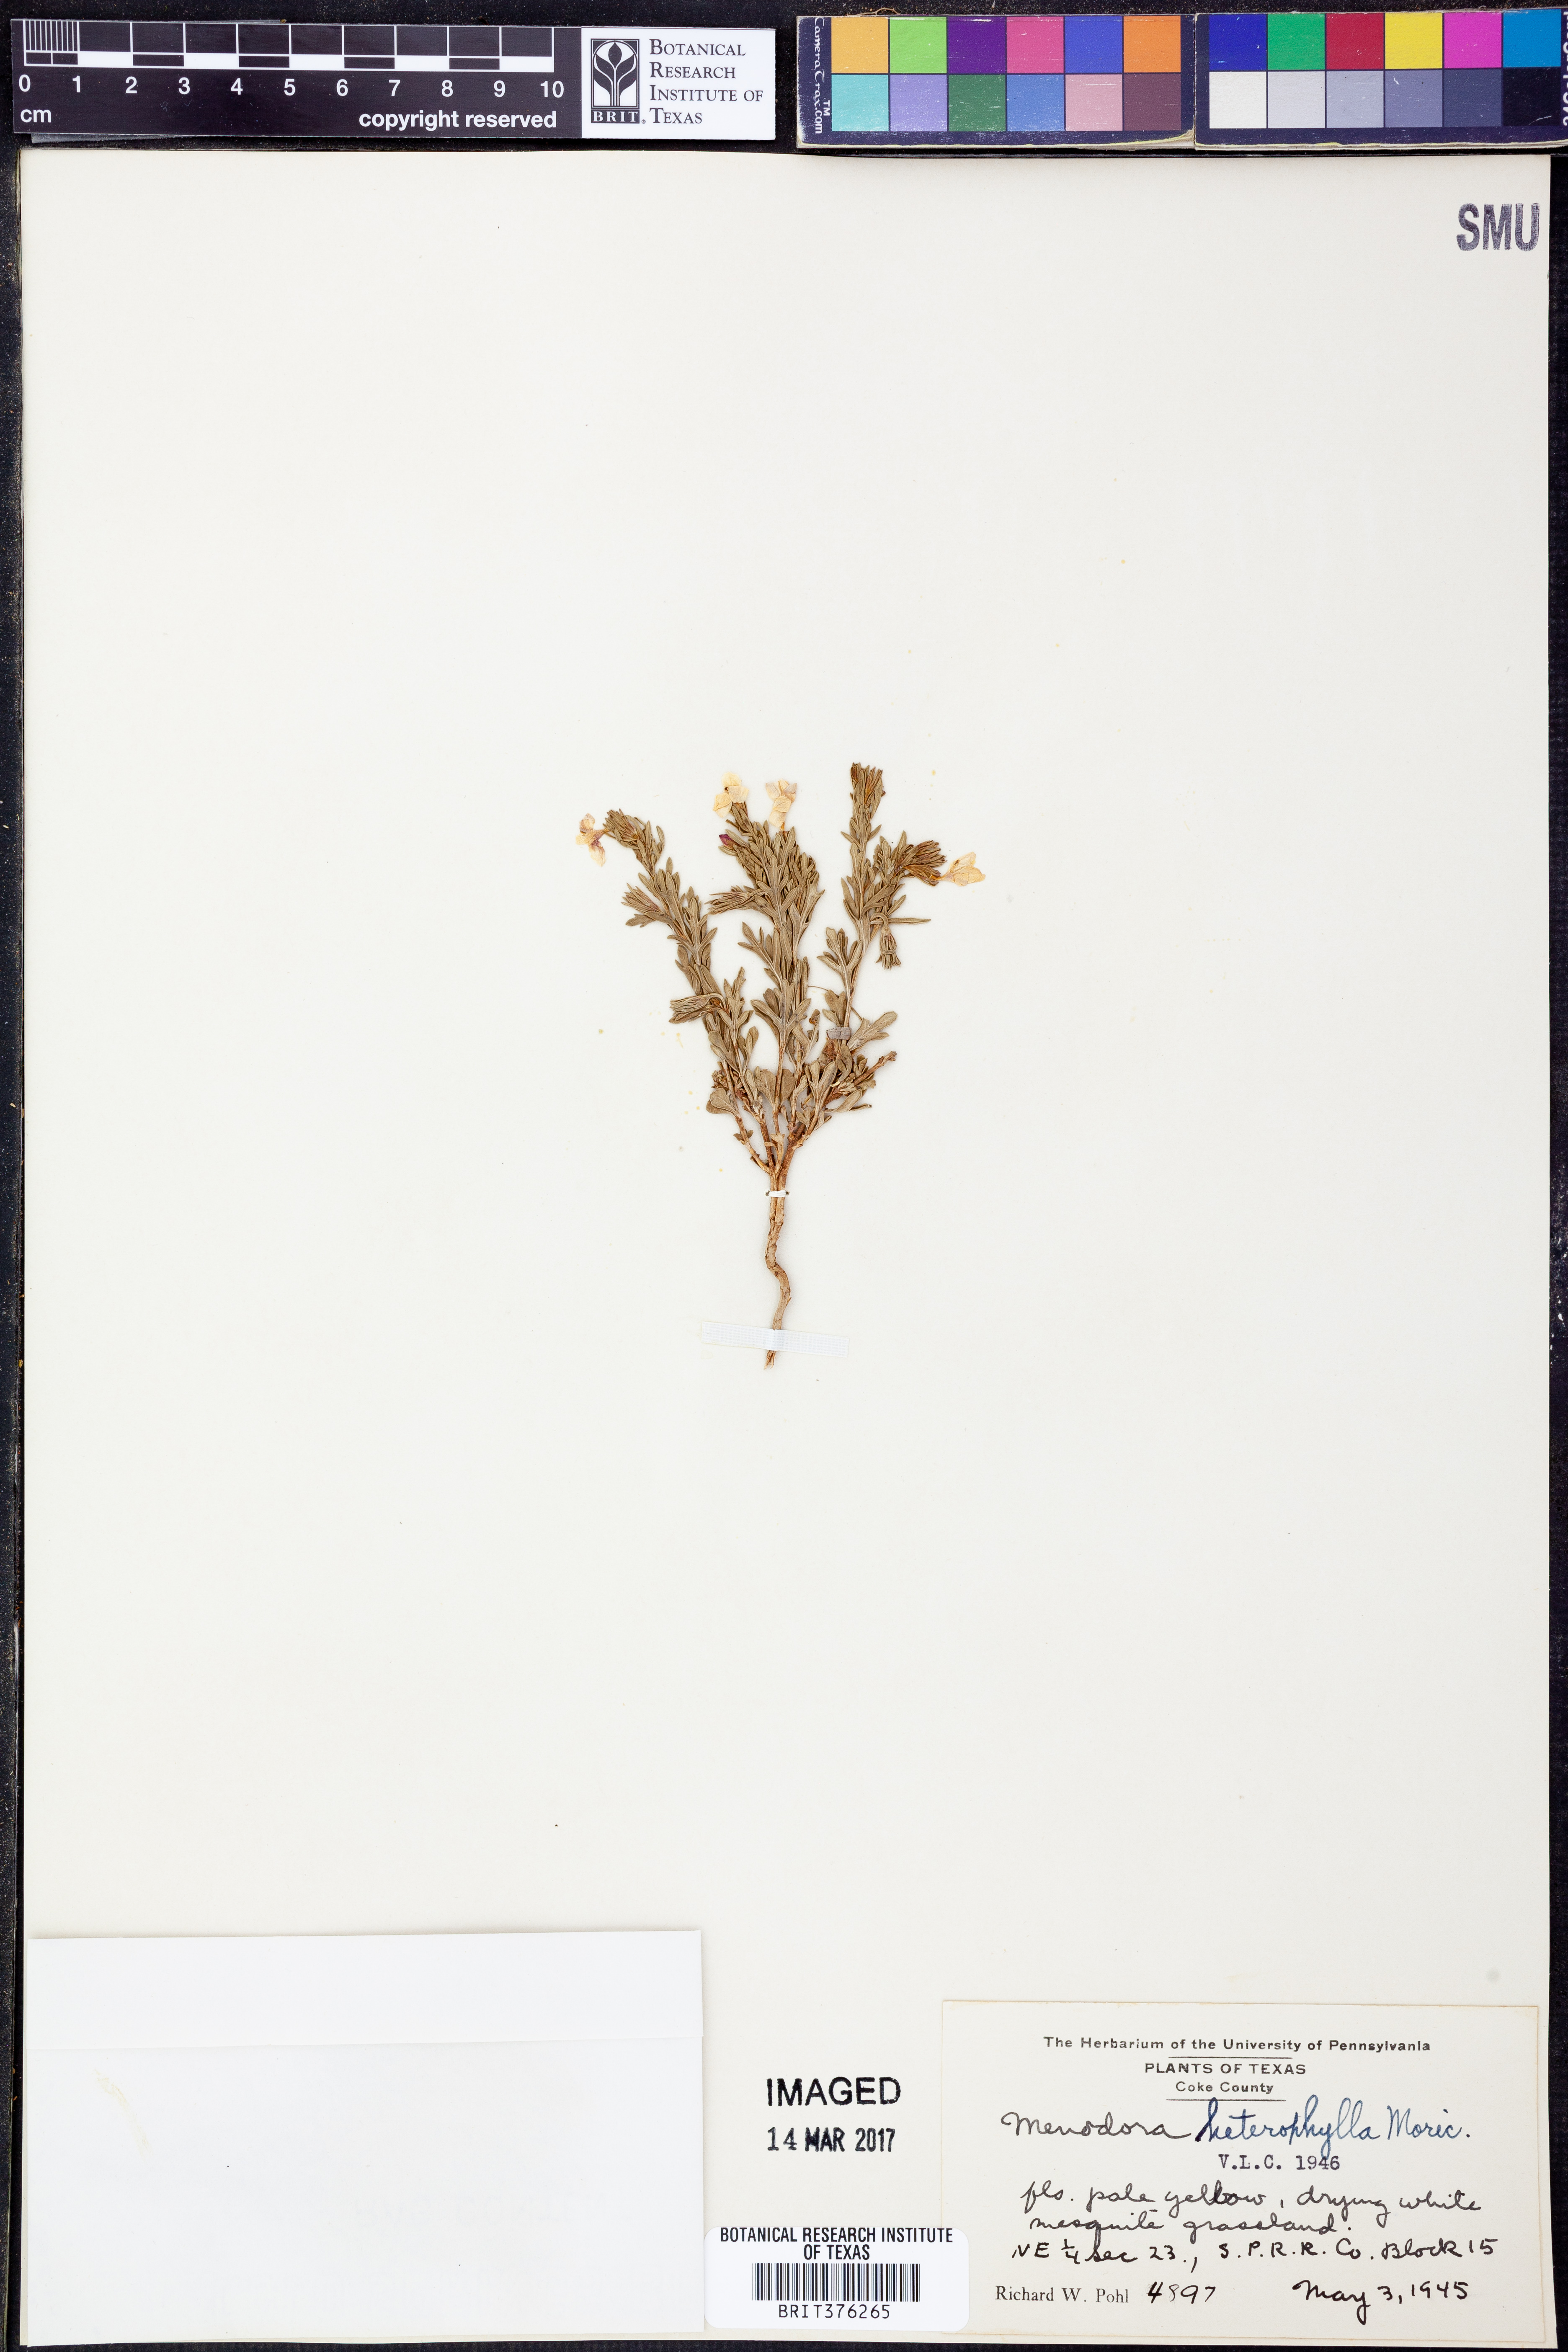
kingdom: Plantae
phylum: Tracheophyta
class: Magnoliopsida
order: Lamiales
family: Oleaceae
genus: Menodora
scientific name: Menodora heterophylla
